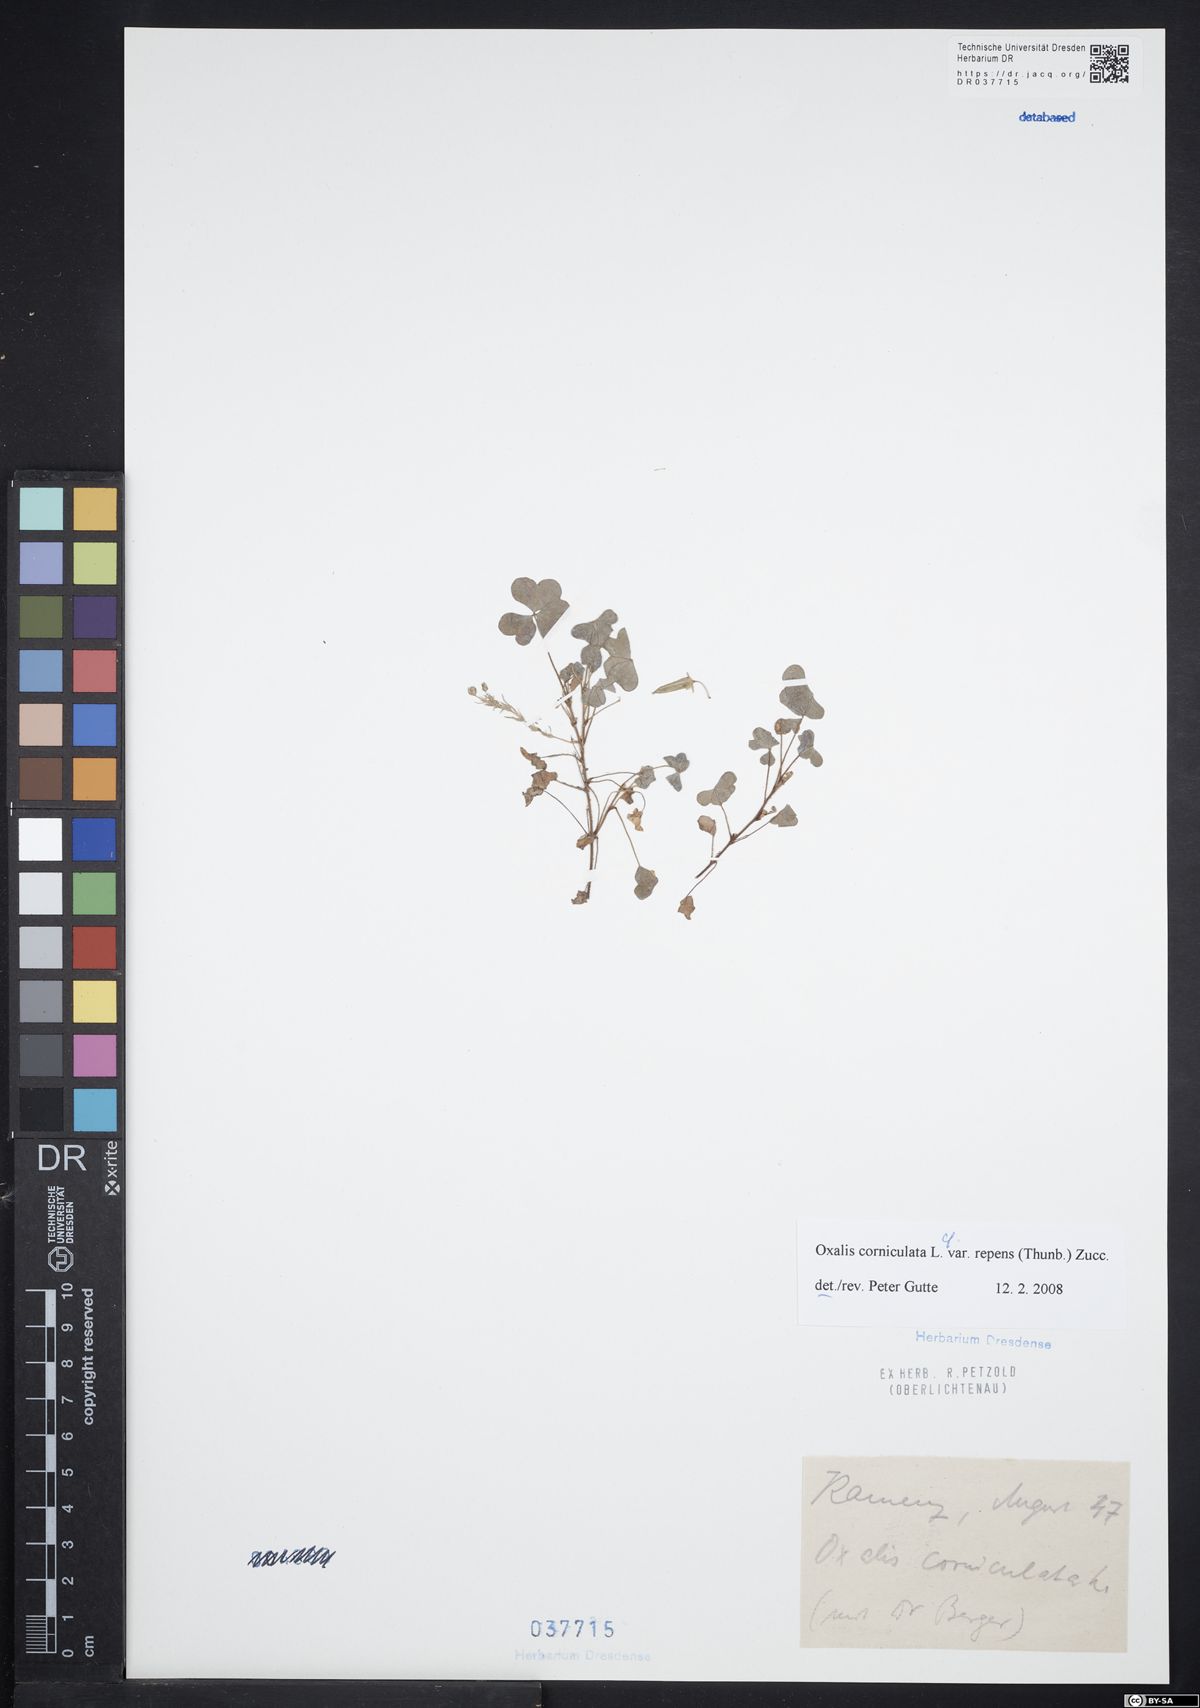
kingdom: Plantae
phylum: Tracheophyta
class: Magnoliopsida
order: Oxalidales
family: Oxalidaceae
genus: Oxalis
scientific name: Oxalis corniculata
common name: Procumbent yellow-sorrel
